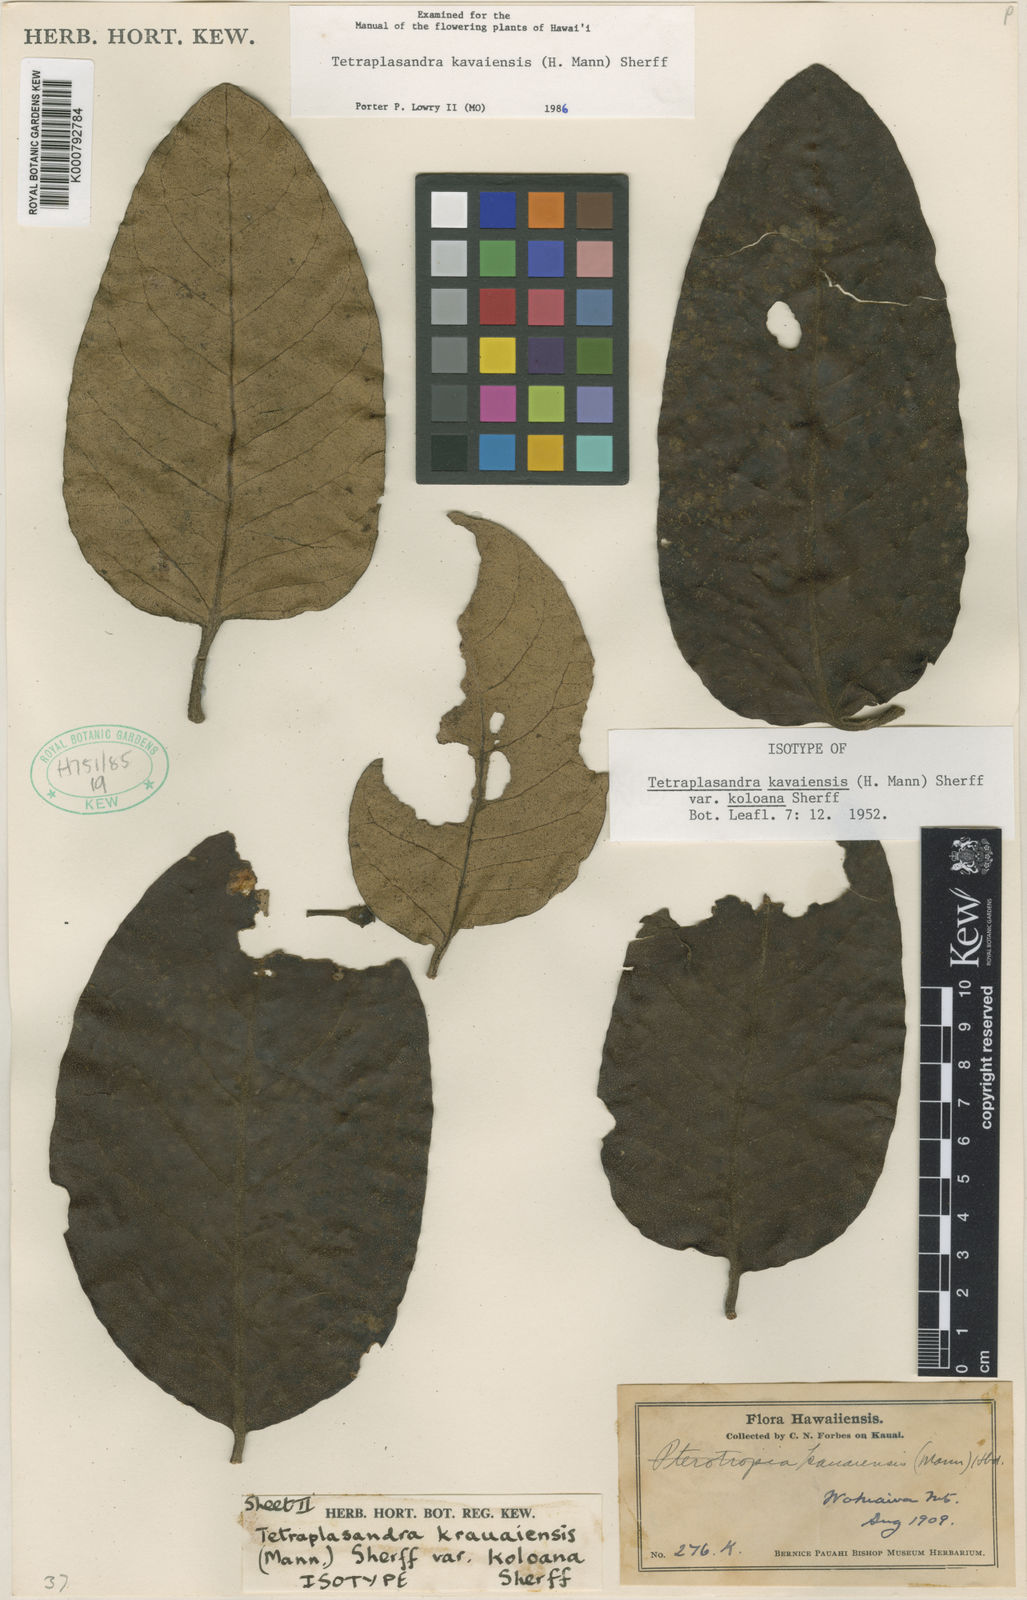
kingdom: Plantae
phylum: Tracheophyta
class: Magnoliopsida
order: Apiales
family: Araliaceae
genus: Polyscias
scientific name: Polyscias kavaiensis
